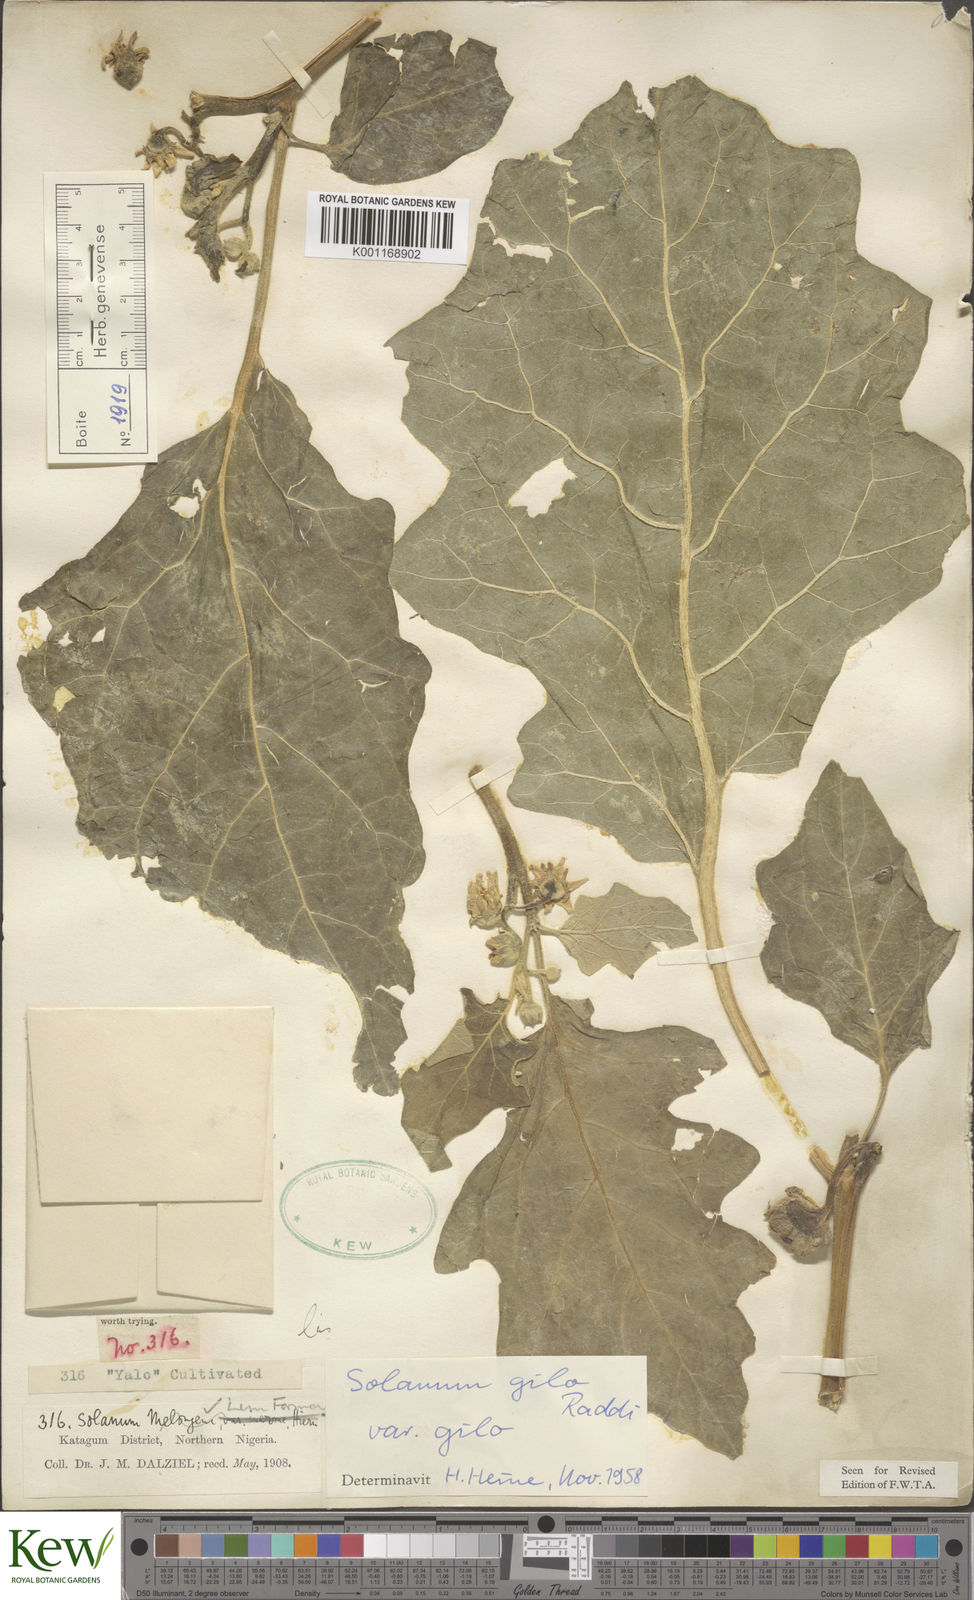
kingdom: Plantae
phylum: Tracheophyta
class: Magnoliopsida
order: Solanales
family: Solanaceae
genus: Solanum
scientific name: Solanum aethiopicum
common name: Gilo
